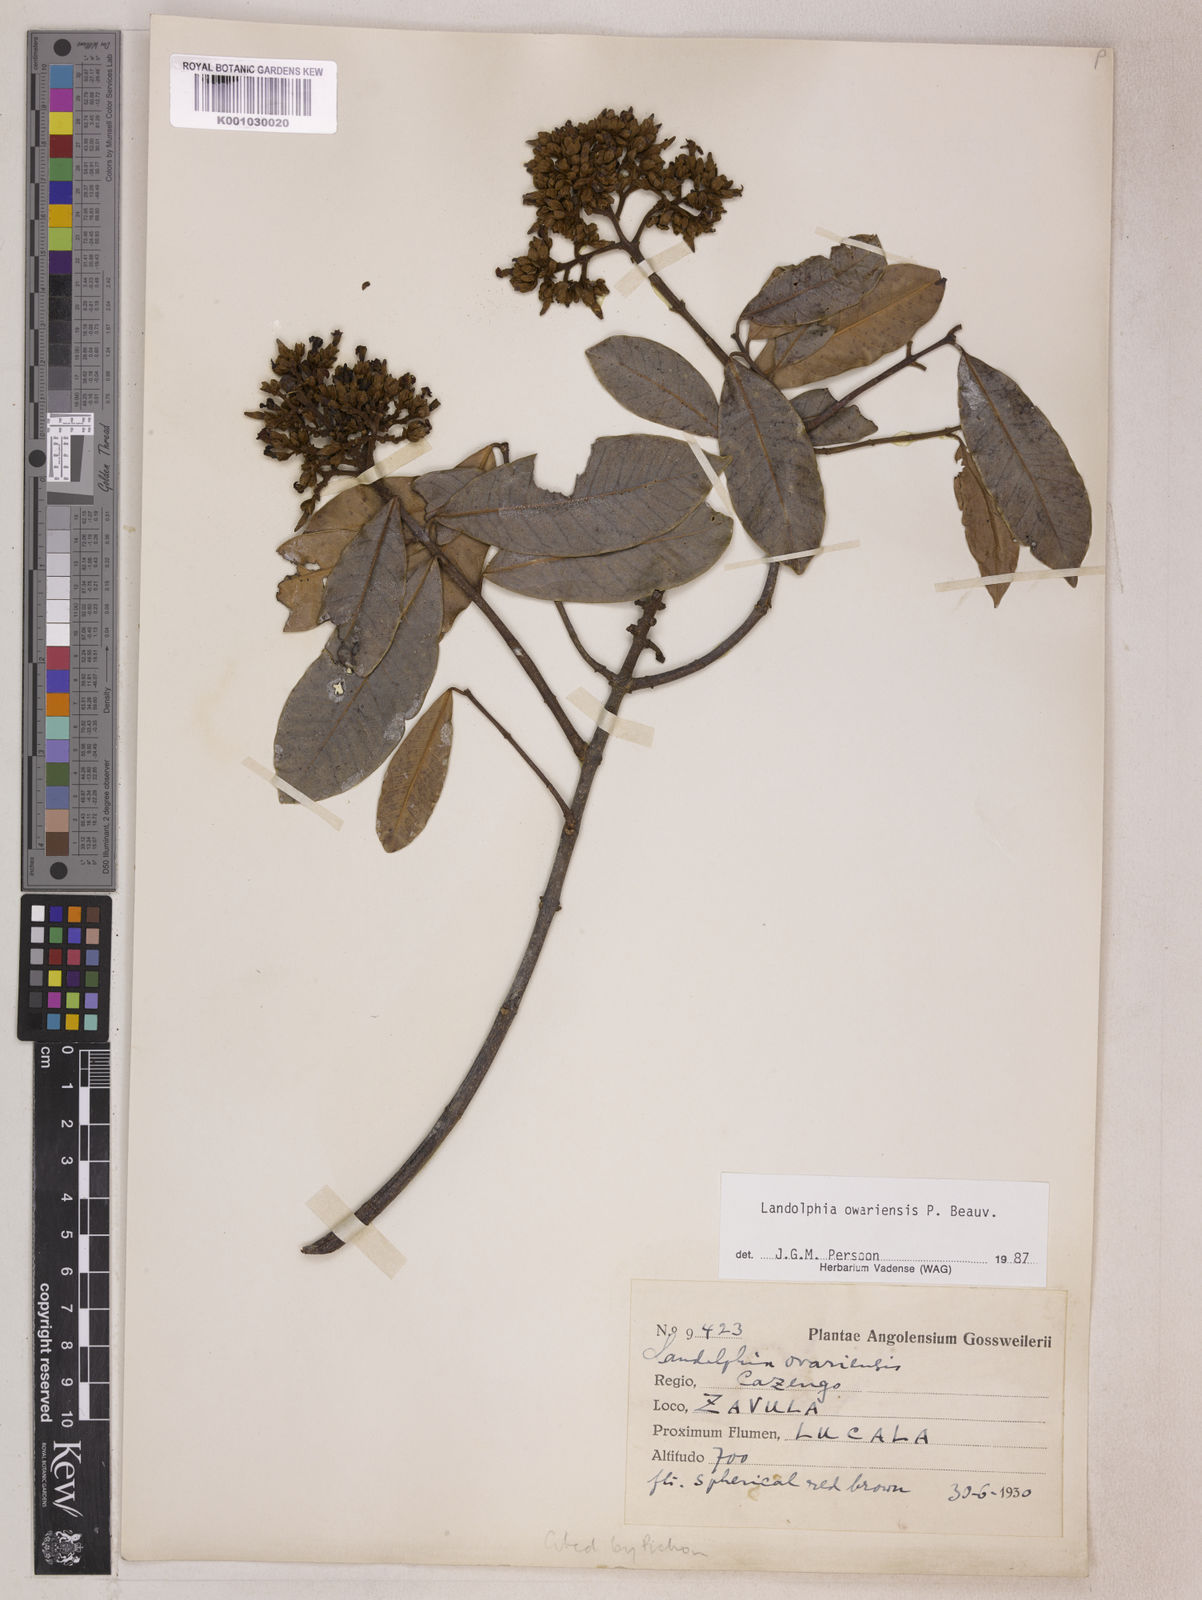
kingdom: Plantae
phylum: Tracheophyta
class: Magnoliopsida
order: Gentianales
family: Apocynaceae
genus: Landolphia
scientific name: Landolphia owariensis
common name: White-ball-rubber
